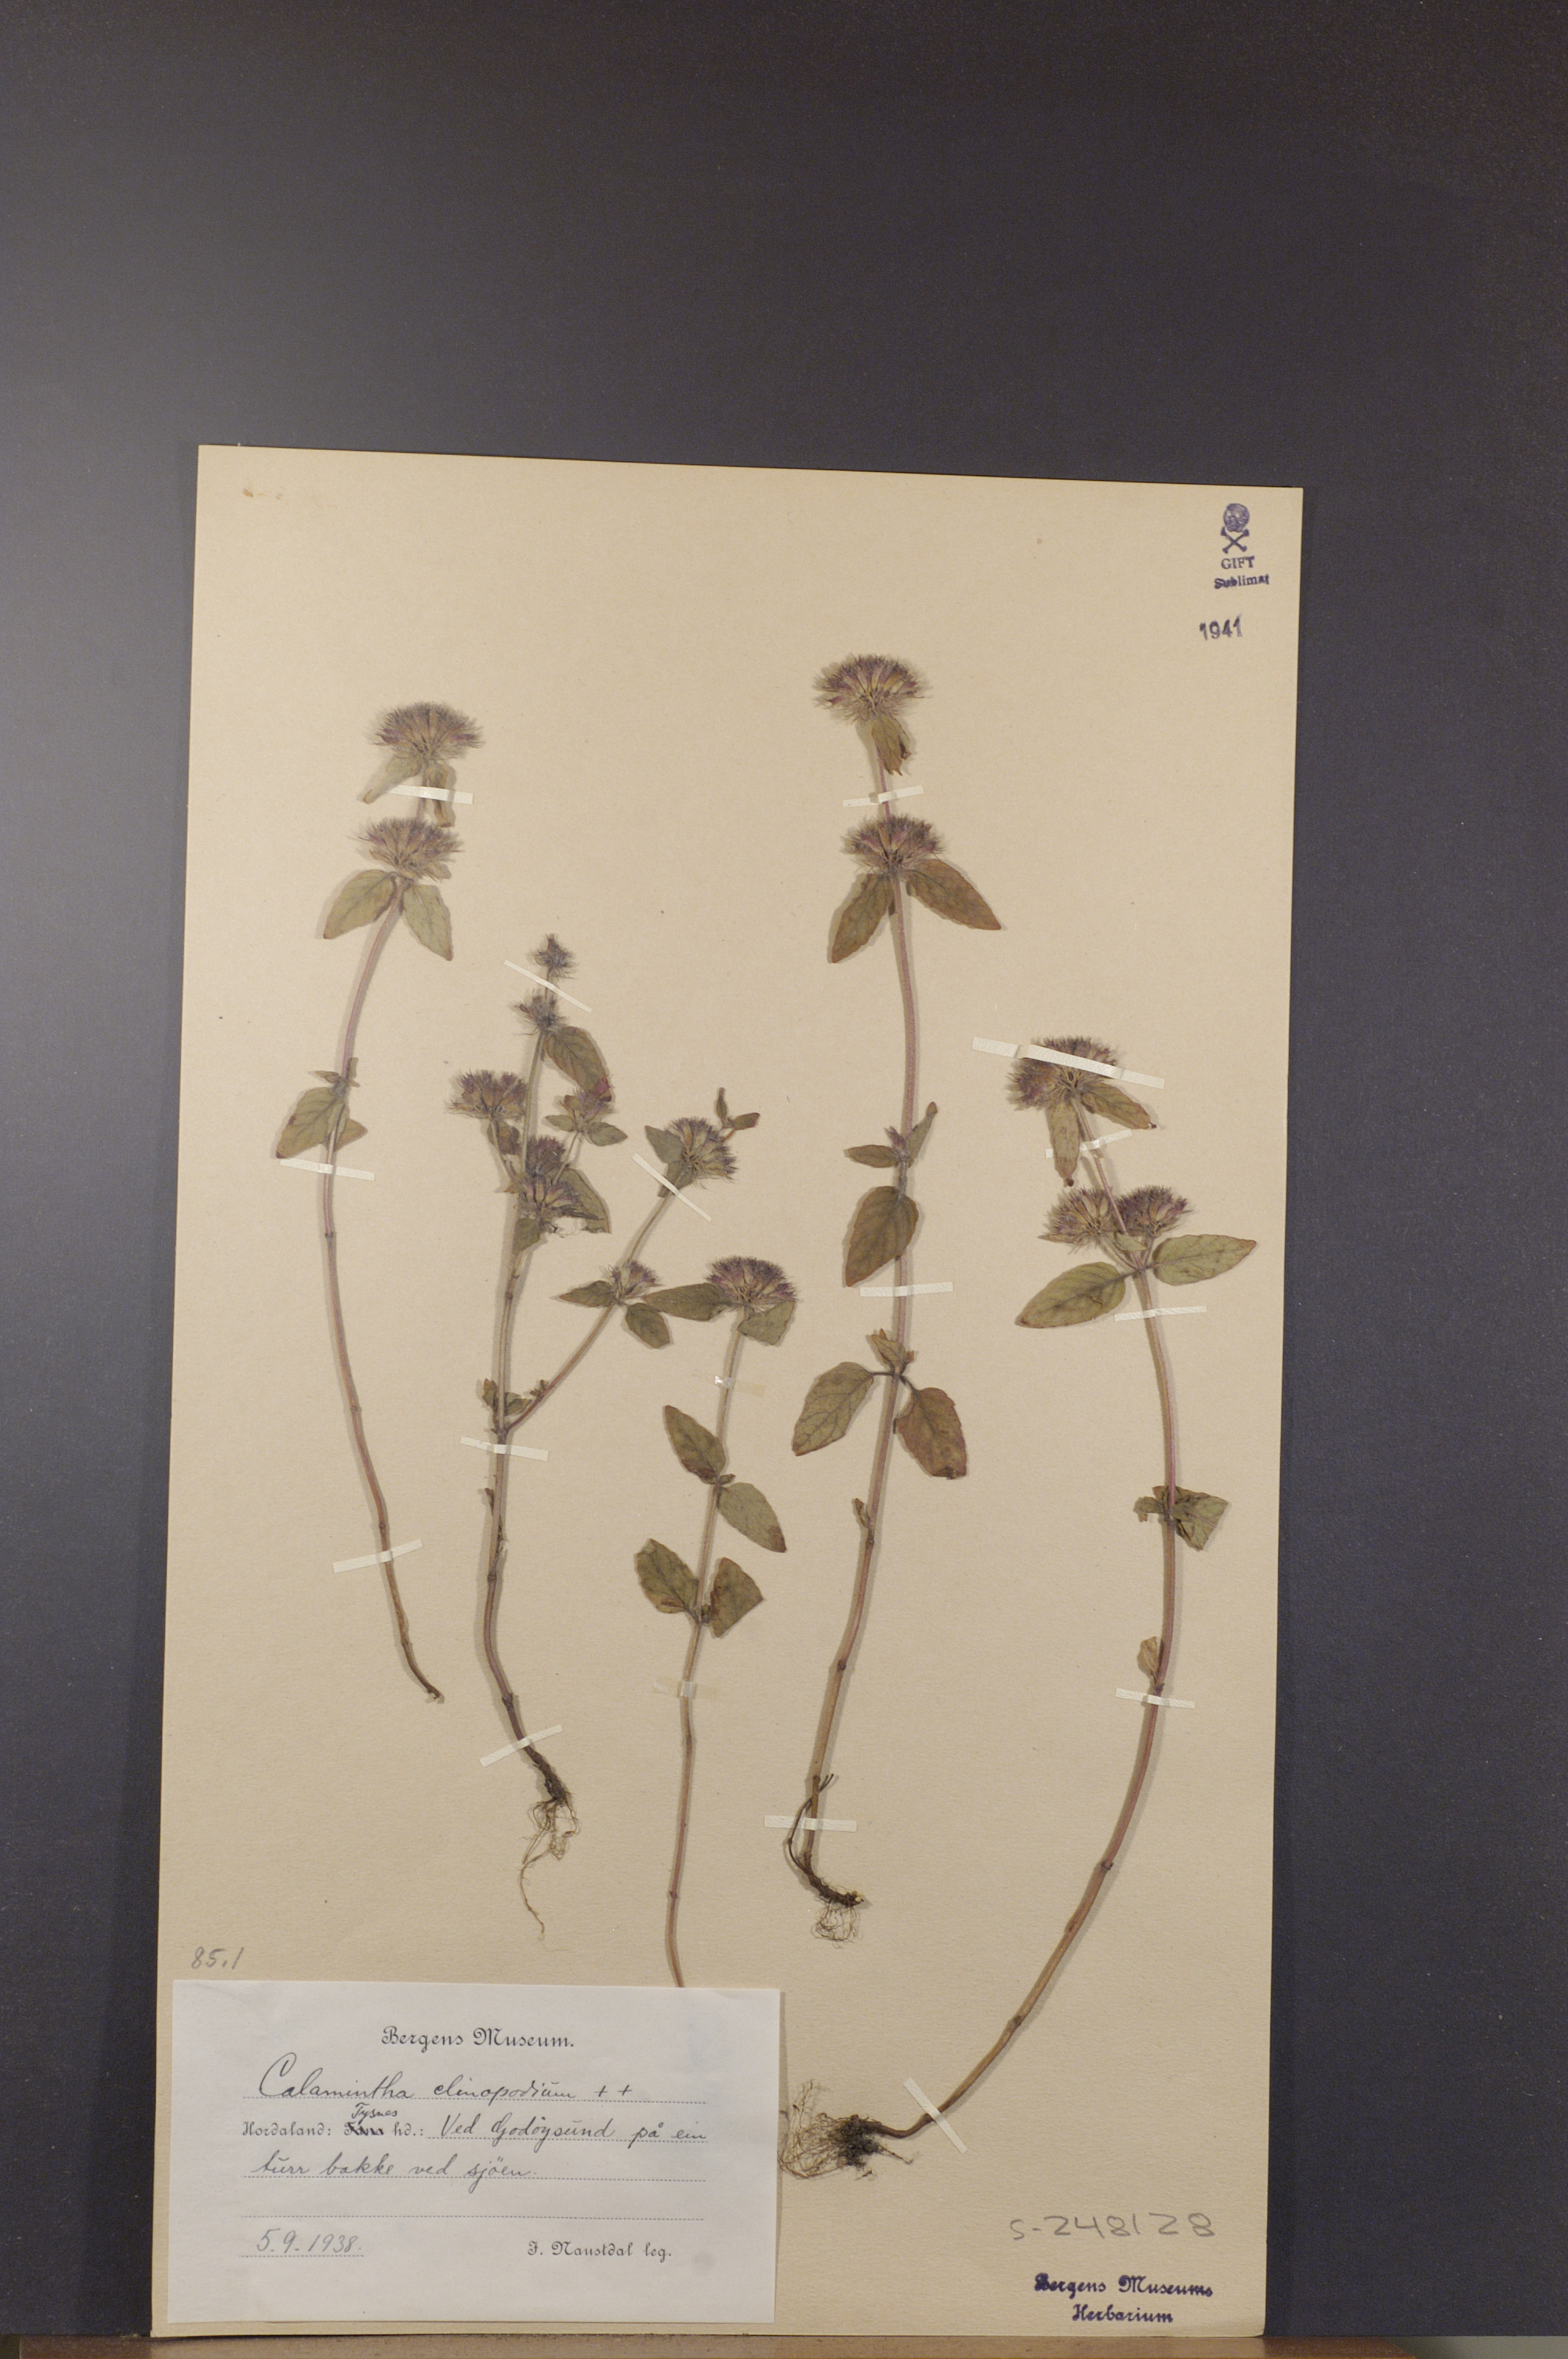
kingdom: Plantae
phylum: Tracheophyta
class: Magnoliopsida
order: Lamiales
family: Lamiaceae
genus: Clinopodium
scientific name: Clinopodium vulgare
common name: Wild basil
